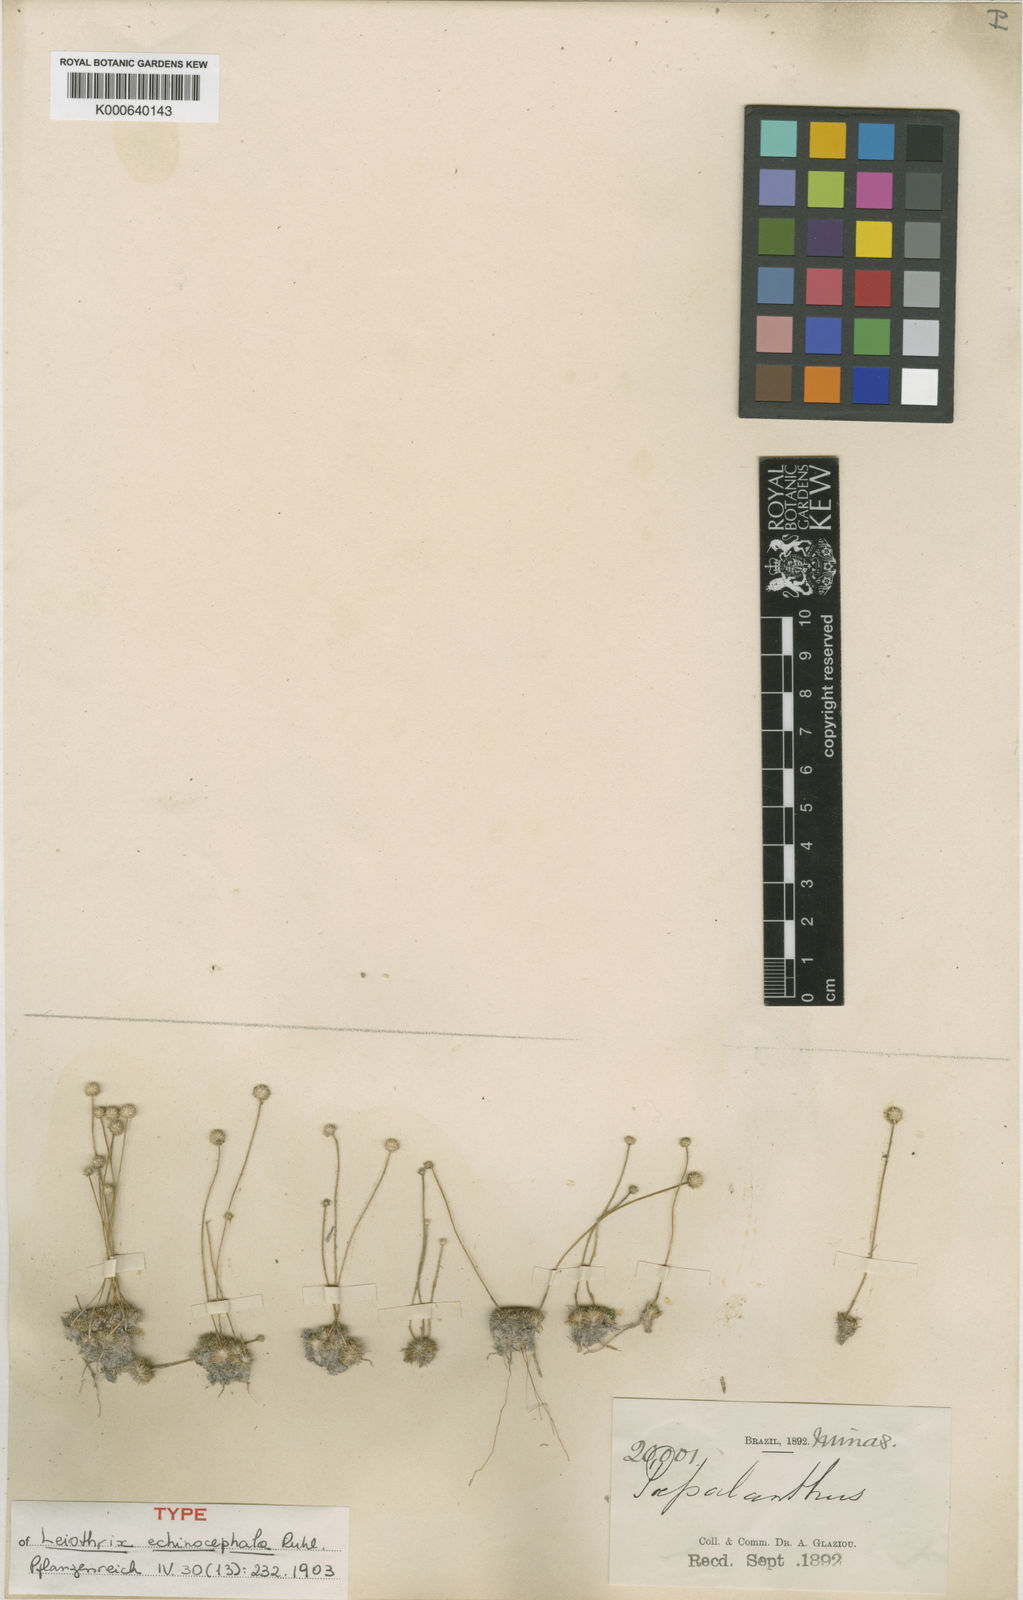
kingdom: Plantae
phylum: Tracheophyta
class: Liliopsida
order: Poales
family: Eriocaulaceae
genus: Leiothrix
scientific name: Leiothrix echinocephala
